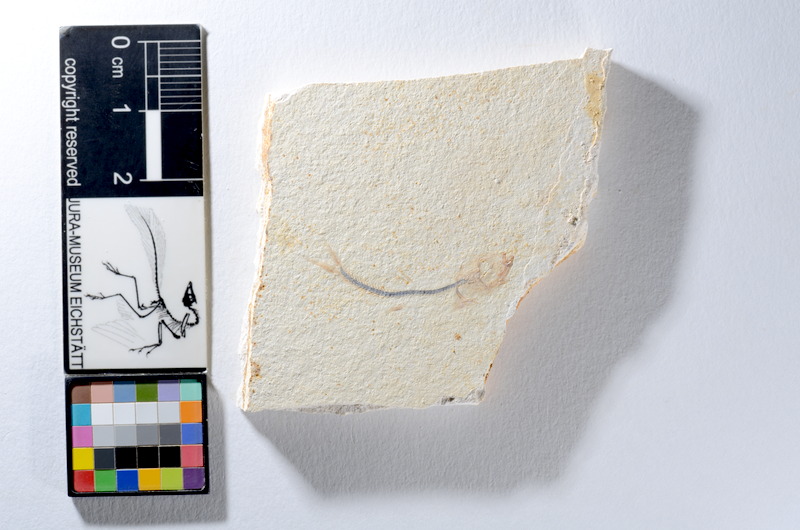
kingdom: Animalia
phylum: Chordata
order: Salmoniformes
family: Orthogonikleithridae
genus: Orthogonikleithrus
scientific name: Orthogonikleithrus hoelli
